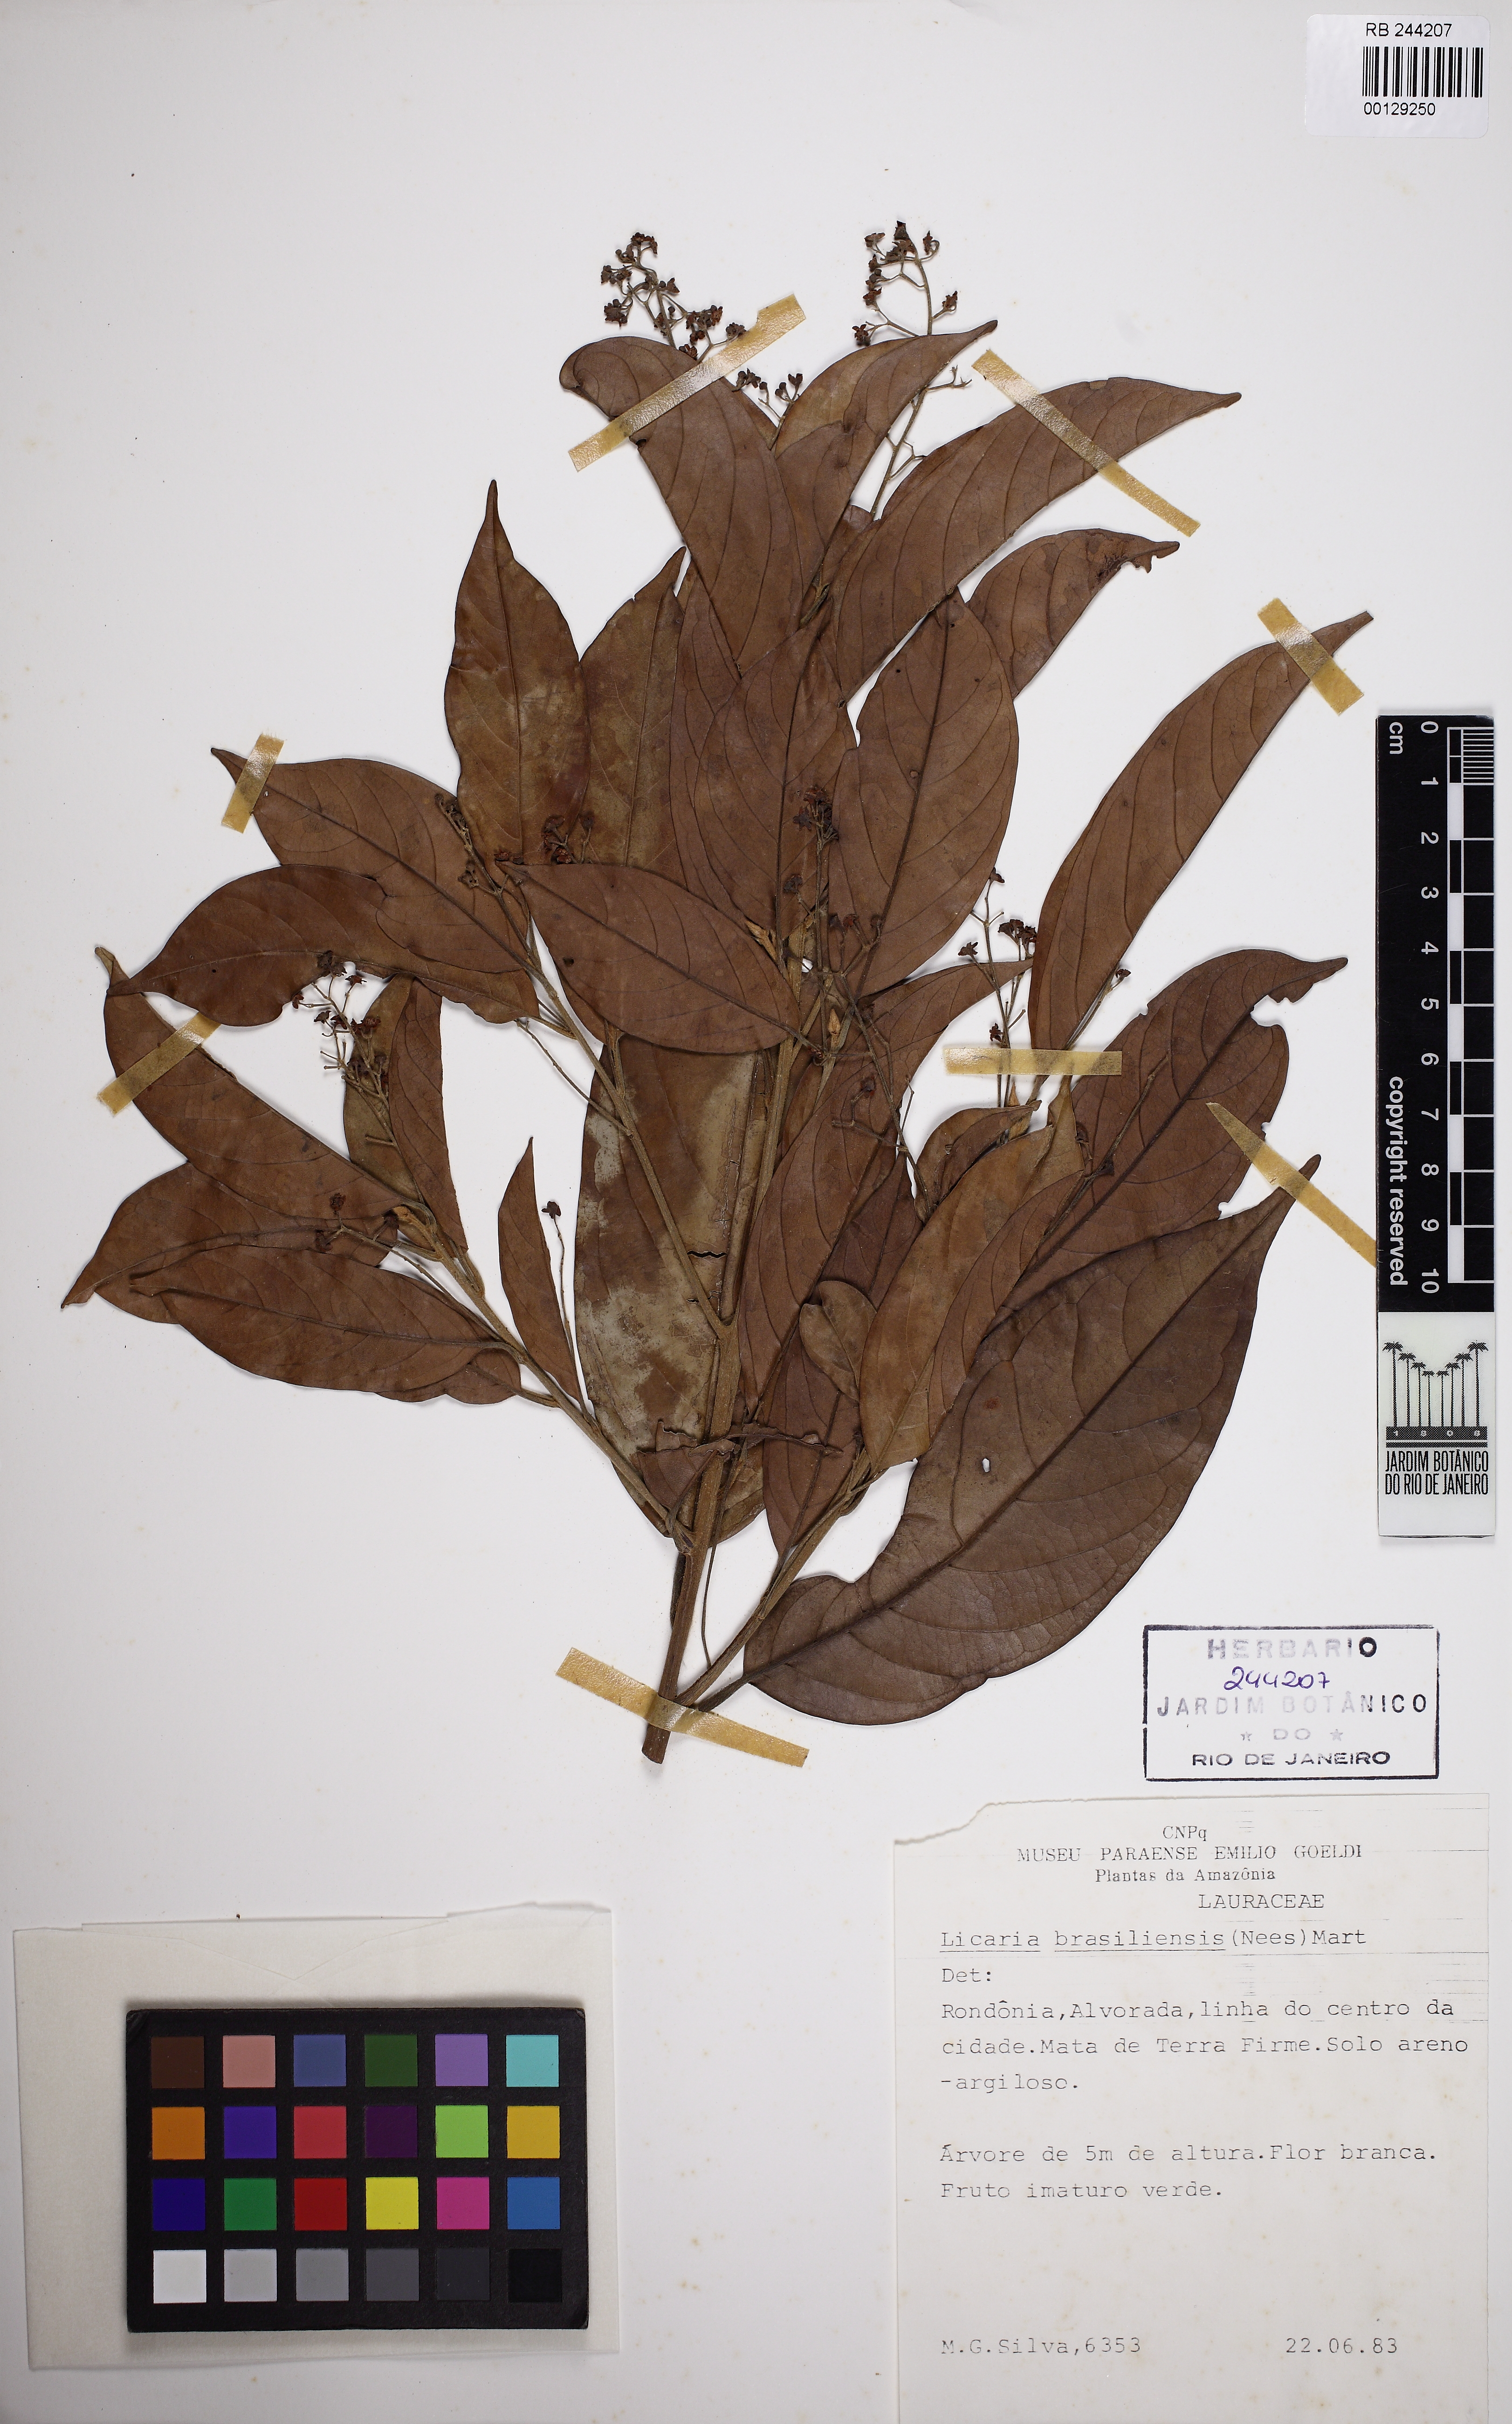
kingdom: Plantae
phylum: Tracheophyta
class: Magnoliopsida
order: Laurales
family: Lauraceae
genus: Licaria
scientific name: Licaria brasiliensis
